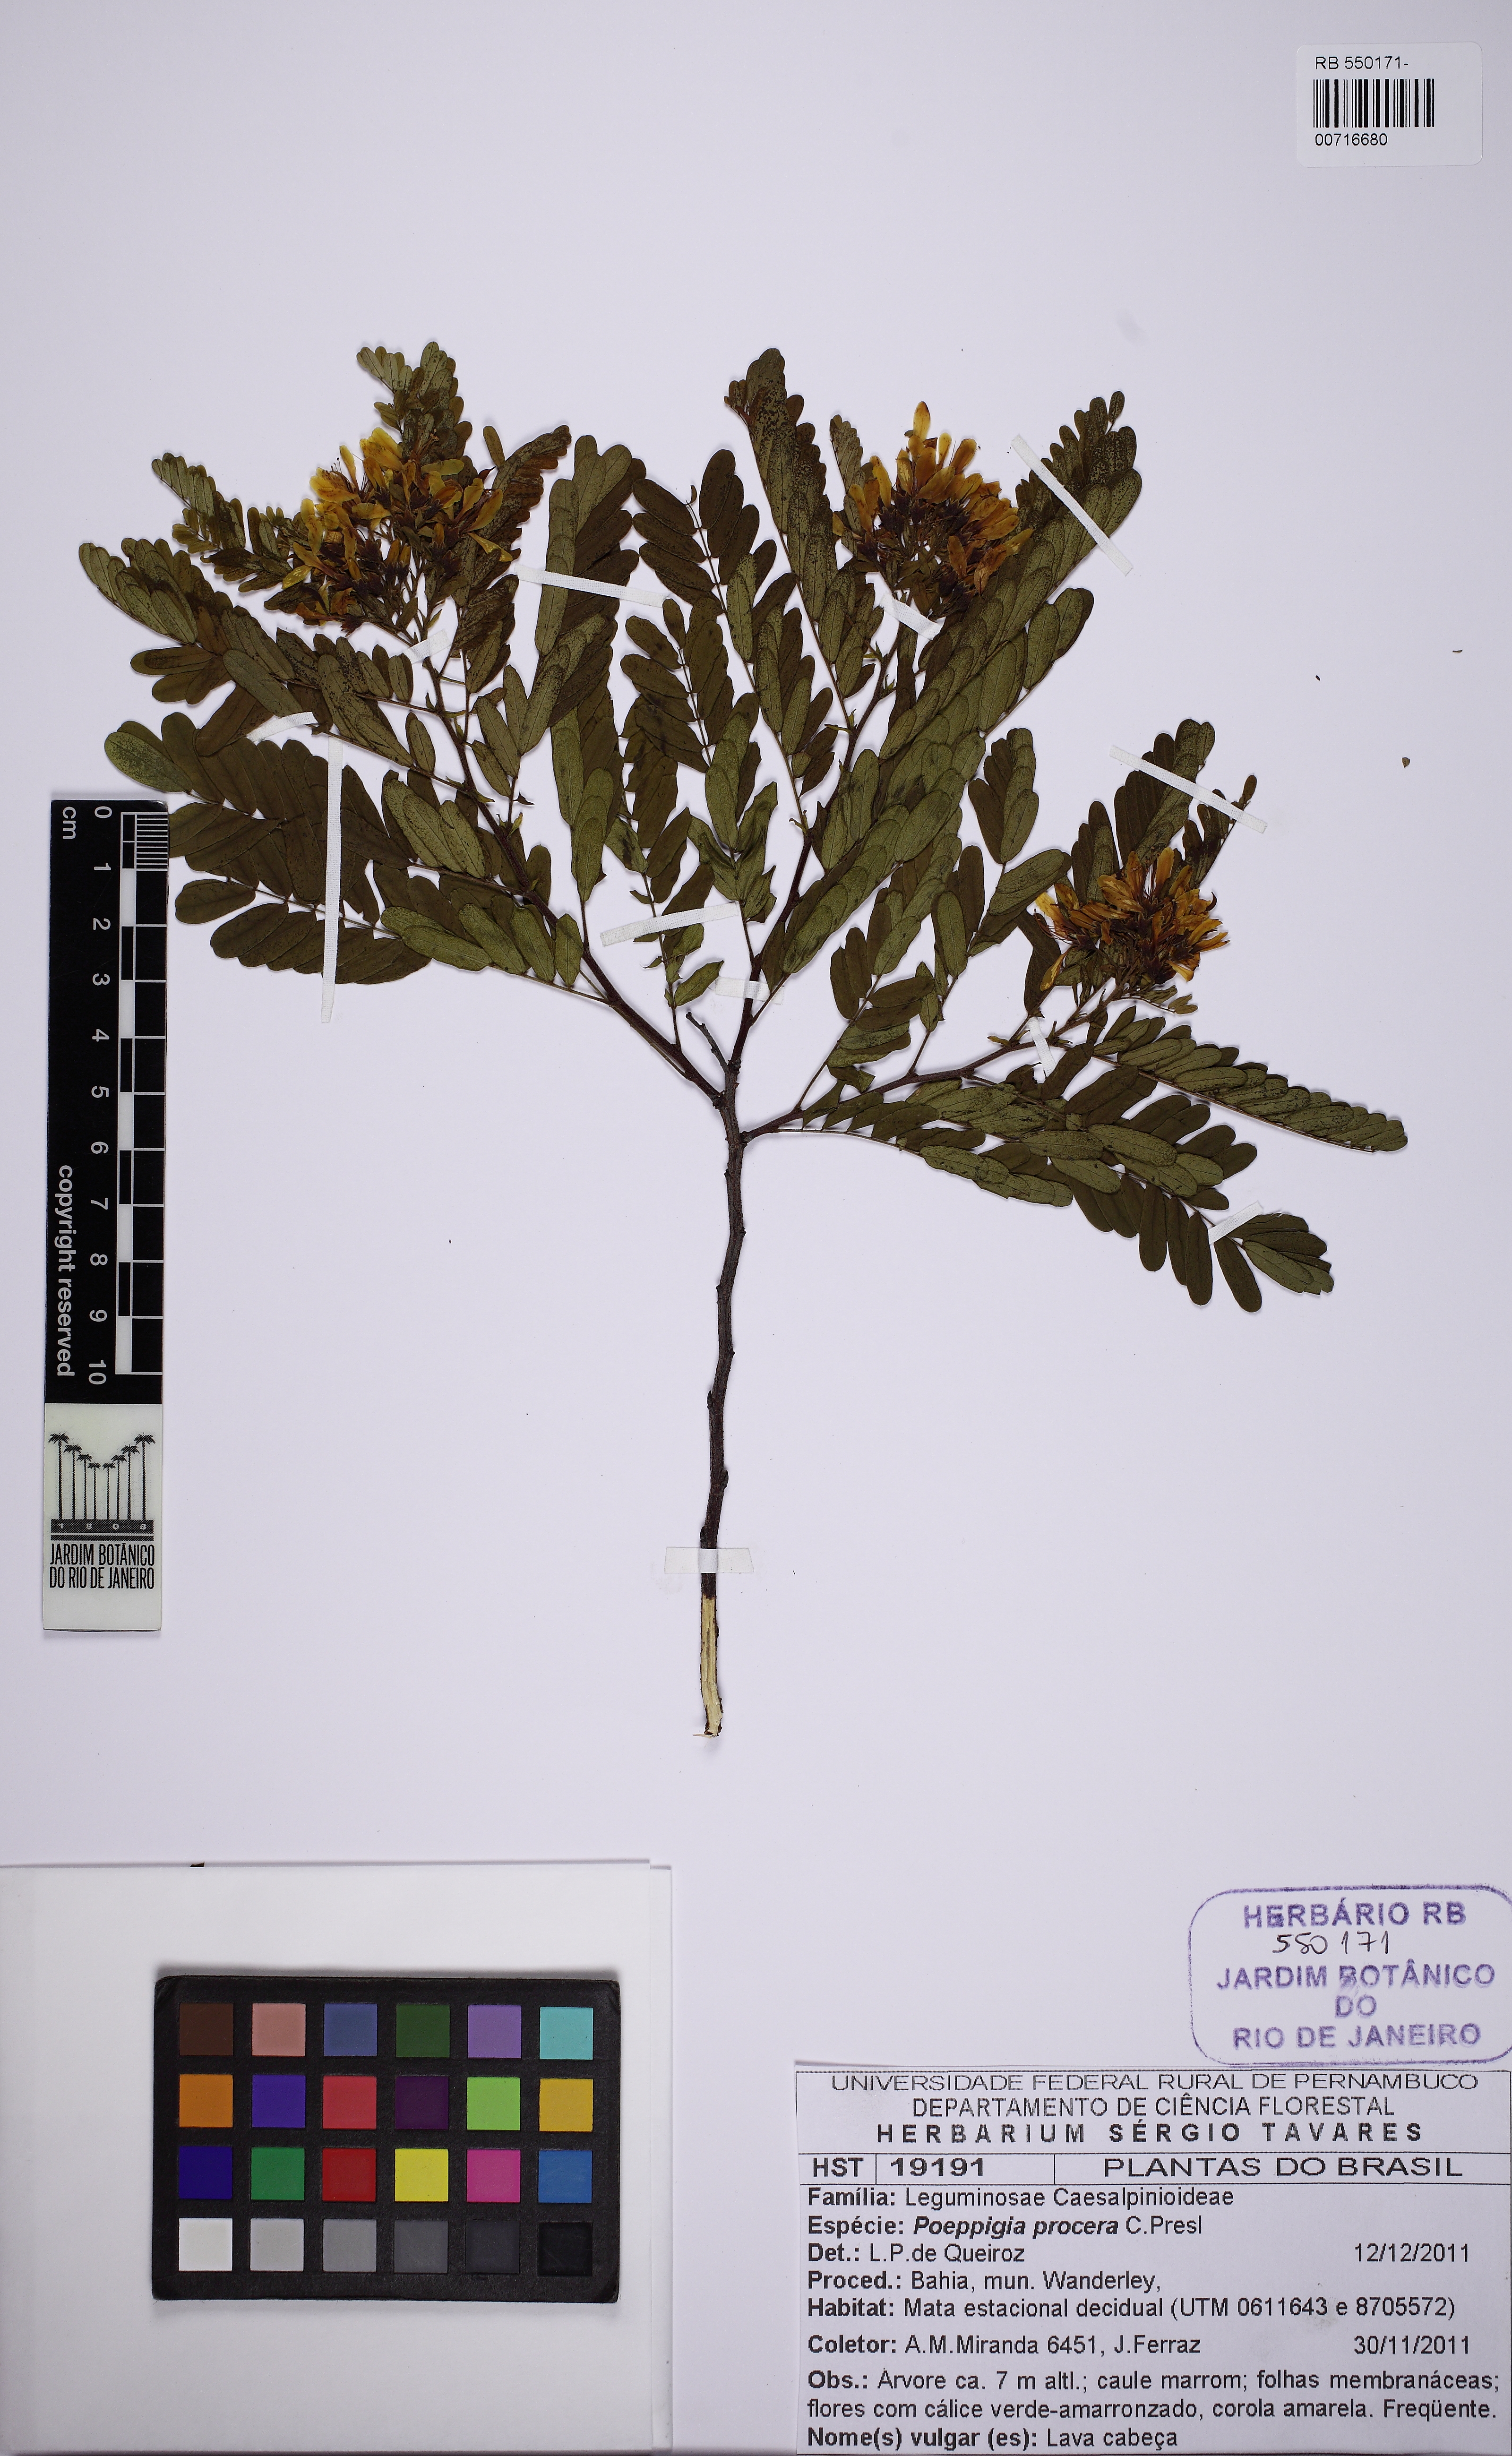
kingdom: Plantae
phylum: Tracheophyta
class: Magnoliopsida
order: Fabales
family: Fabaceae
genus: Poeppigia
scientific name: Poeppigia densiflora
